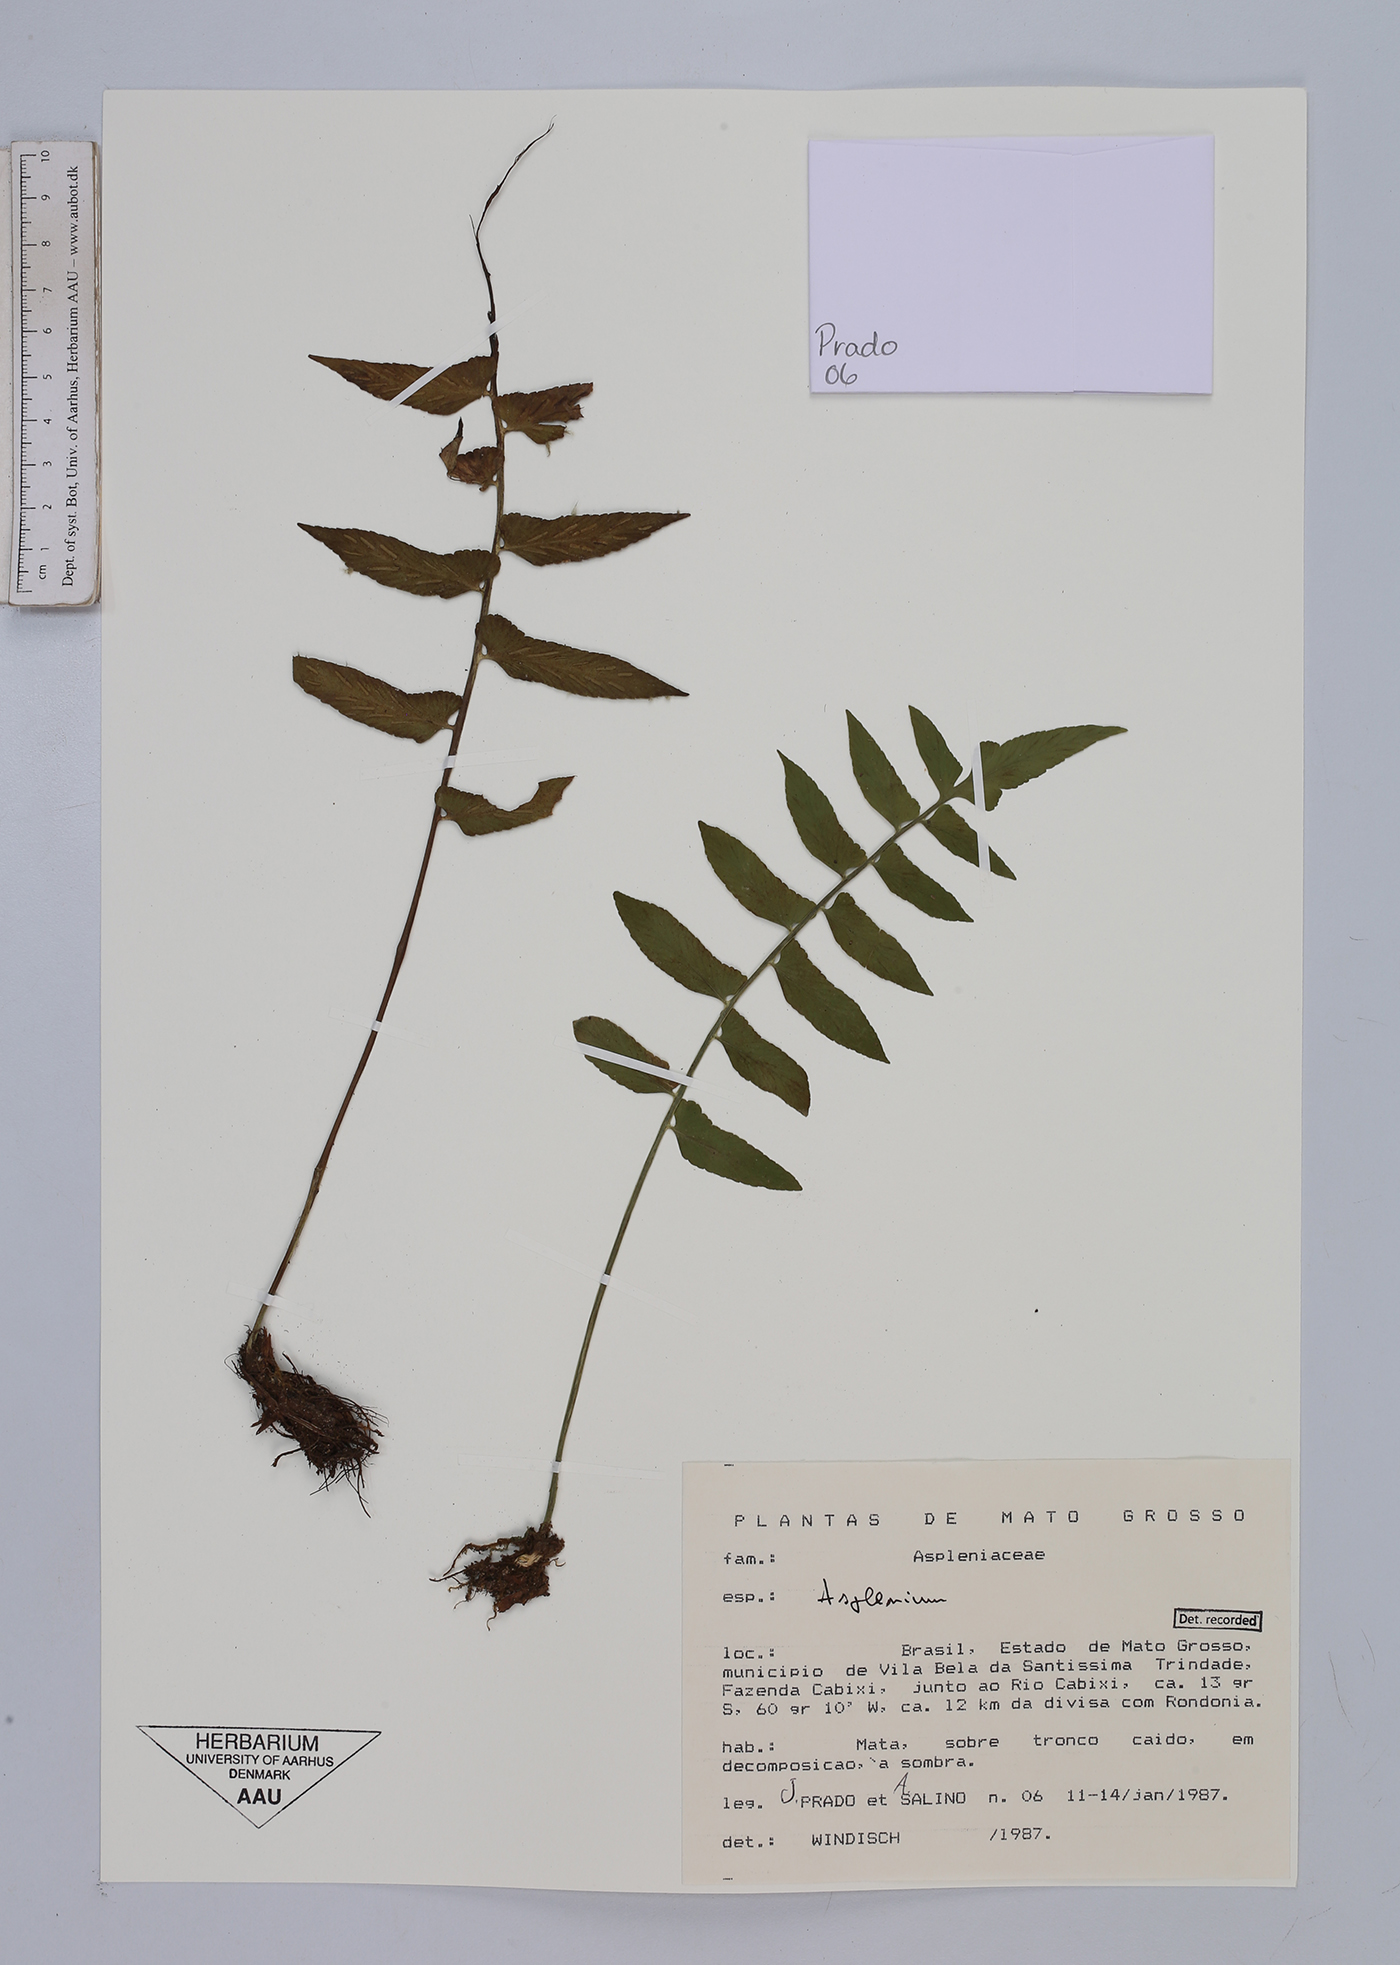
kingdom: Plantae
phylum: Tracheophyta
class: Polypodiopsida
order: Polypodiales
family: Aspleniaceae
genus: Asplenium
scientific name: Asplenium
